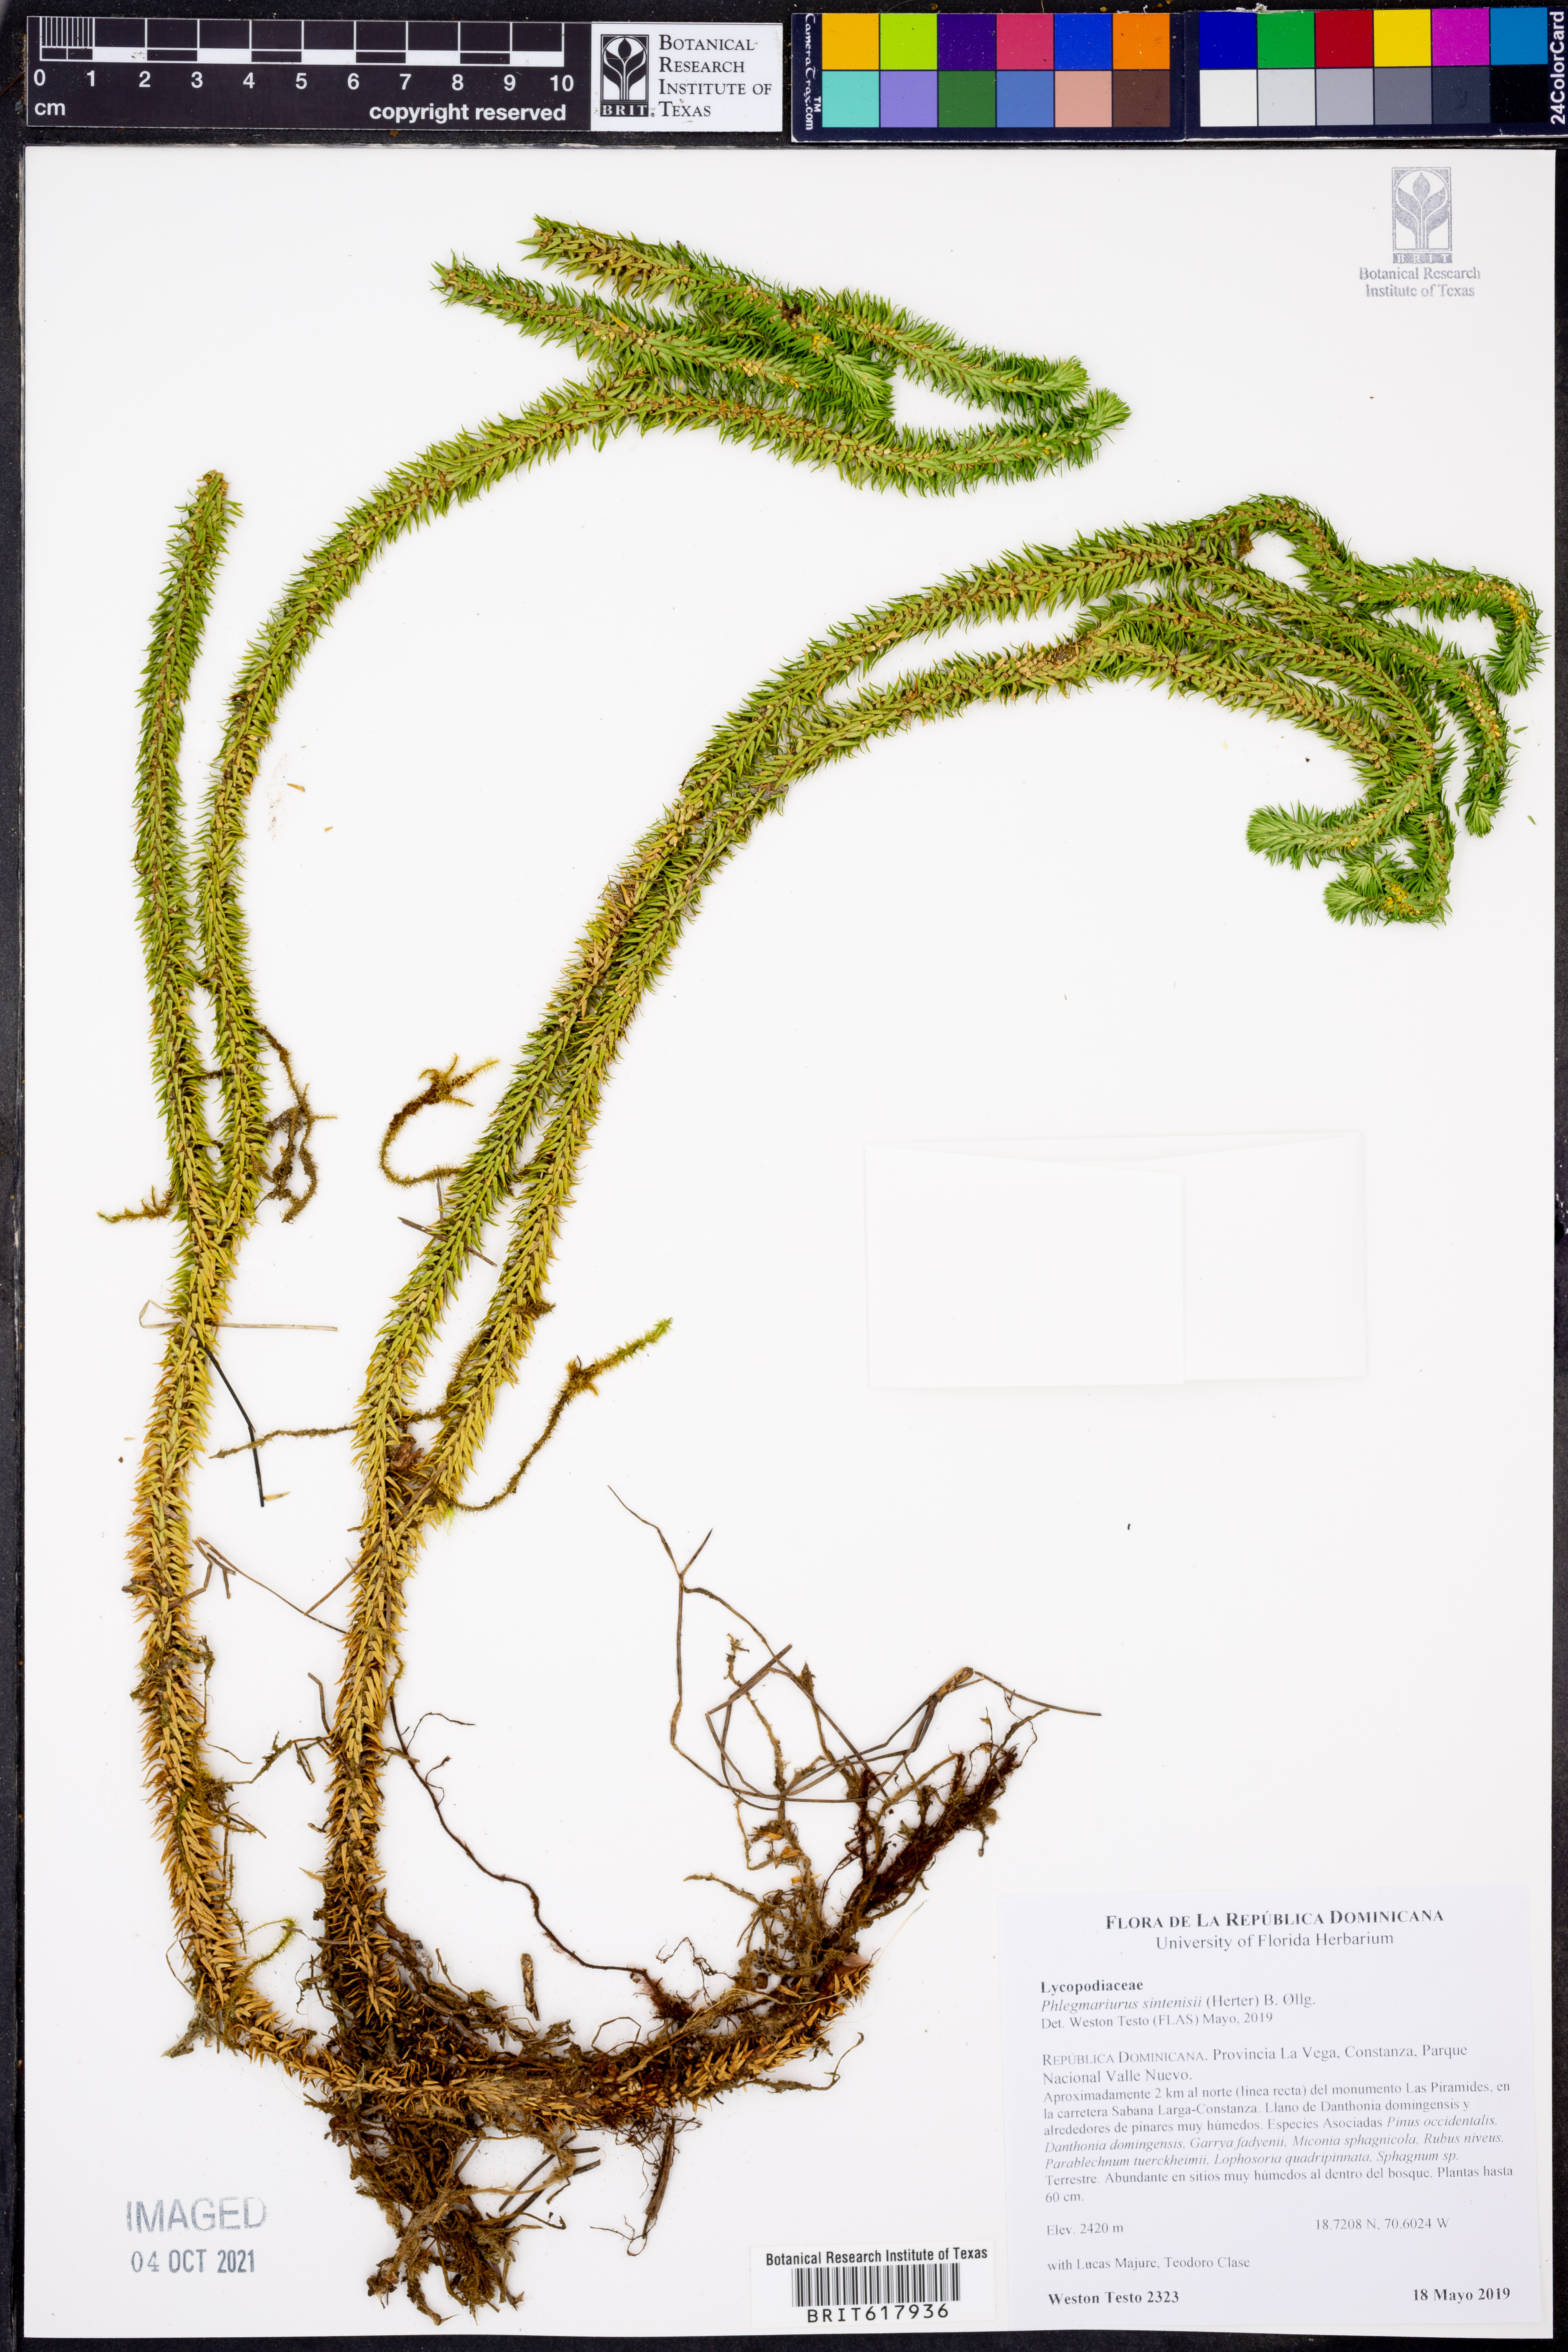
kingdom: Plantae
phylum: Tracheophyta
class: Lycopodiopsida
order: Lycopodiales
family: Lycopodiaceae
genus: Phlegmariurus
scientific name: Phlegmariurus sintenisii
